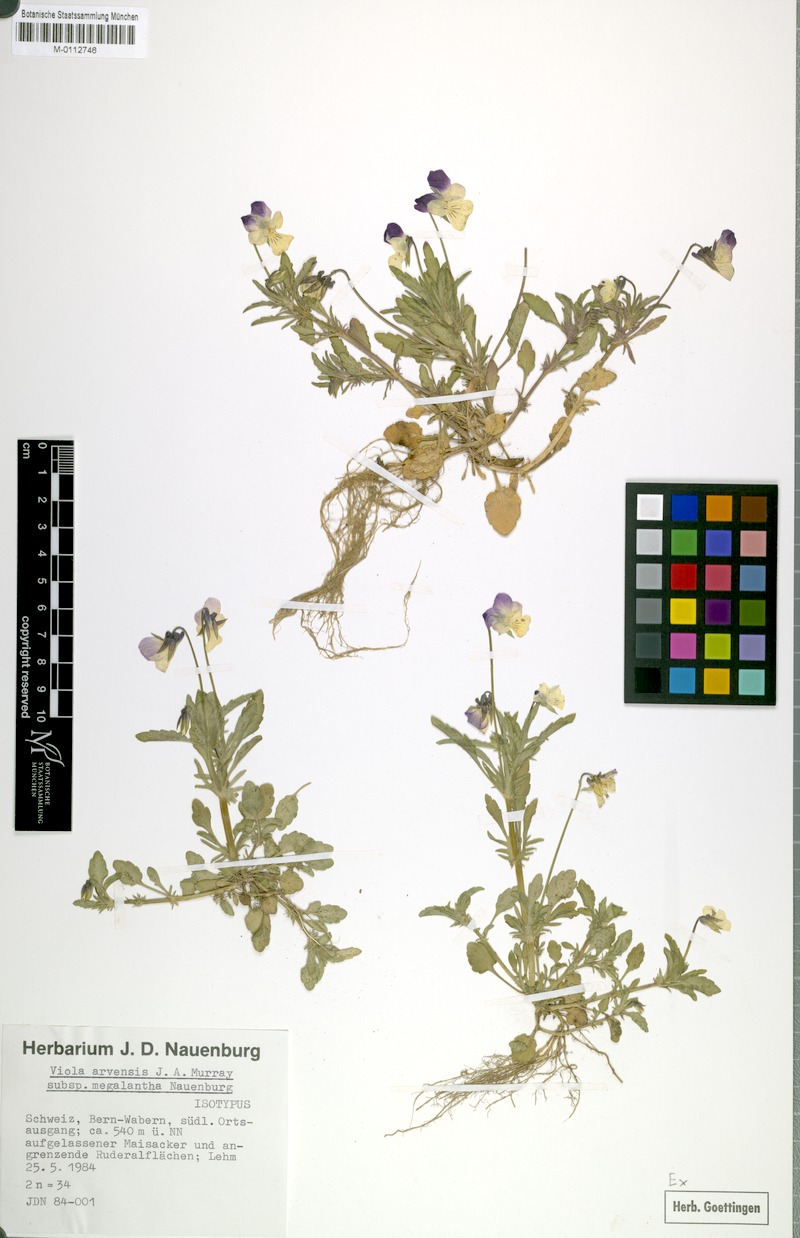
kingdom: Plantae
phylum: Tracheophyta
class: Magnoliopsida
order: Malpighiales
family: Violaceae
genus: Viola
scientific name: Viola arvensis
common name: Field pansy
